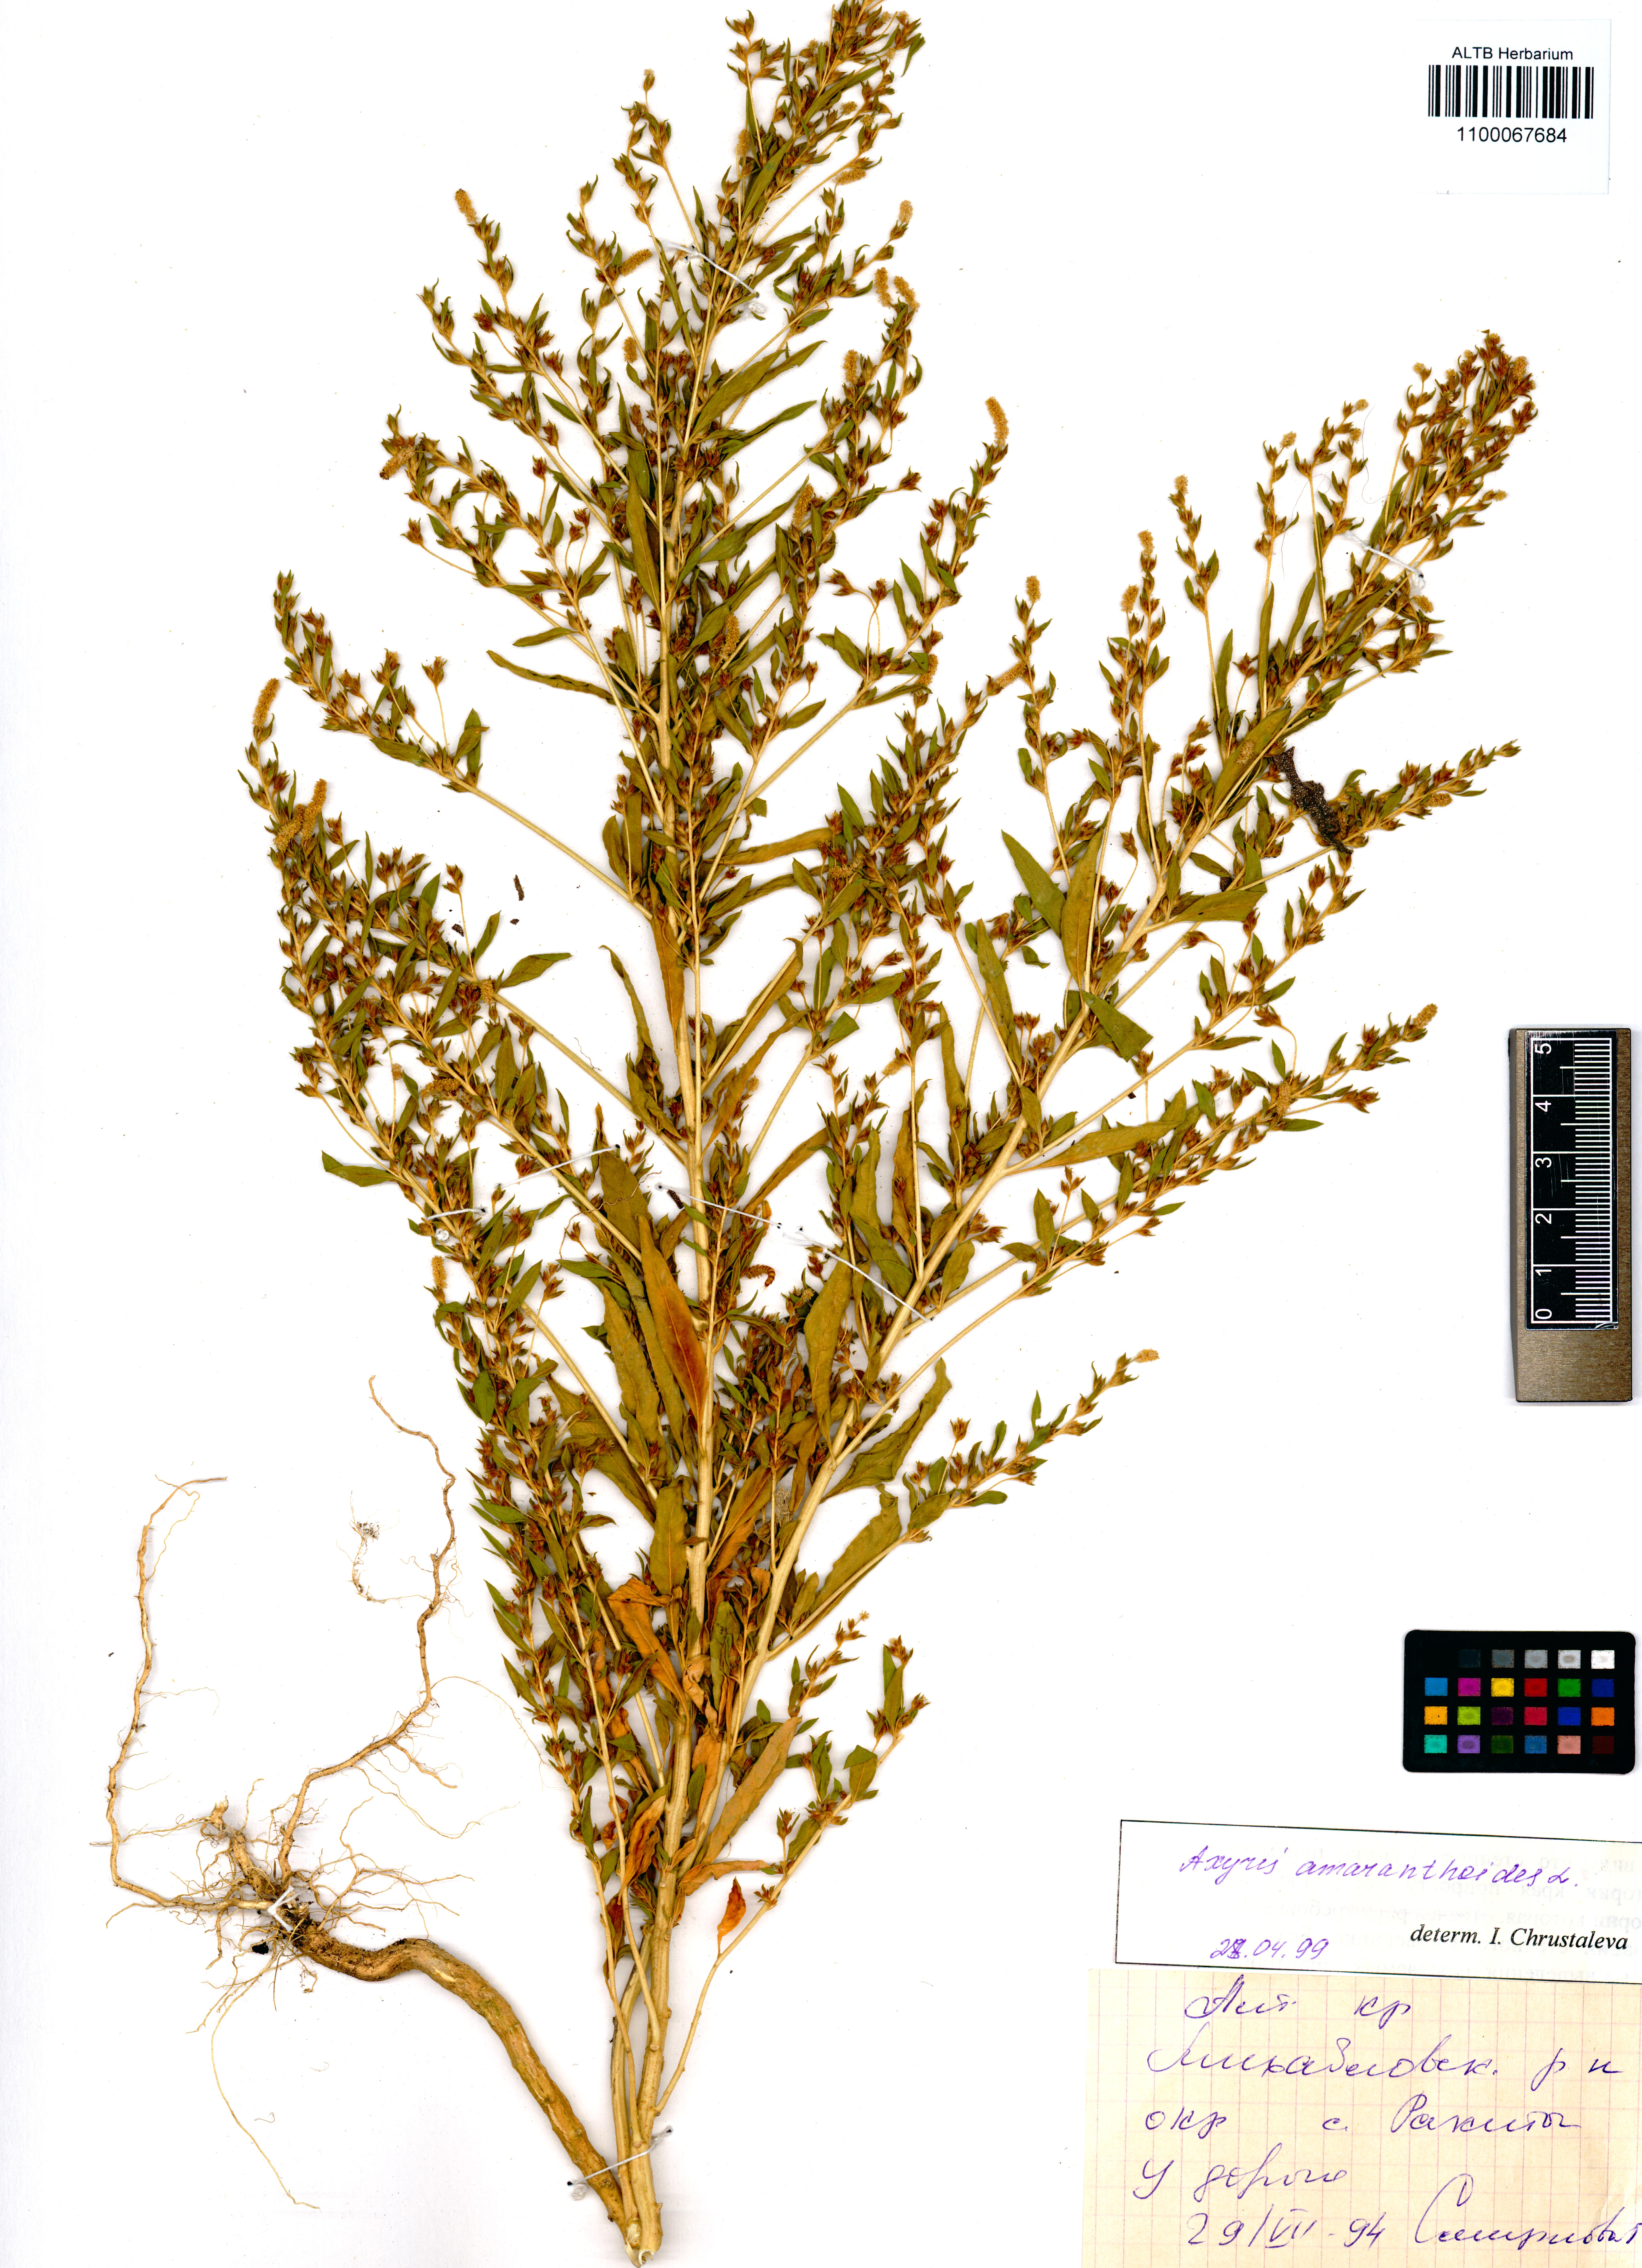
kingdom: Plantae
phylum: Tracheophyta
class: Magnoliopsida
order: Caryophyllales
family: Amaranthaceae
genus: Axyris
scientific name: Axyris amaranthoides
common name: Russian pigweed
